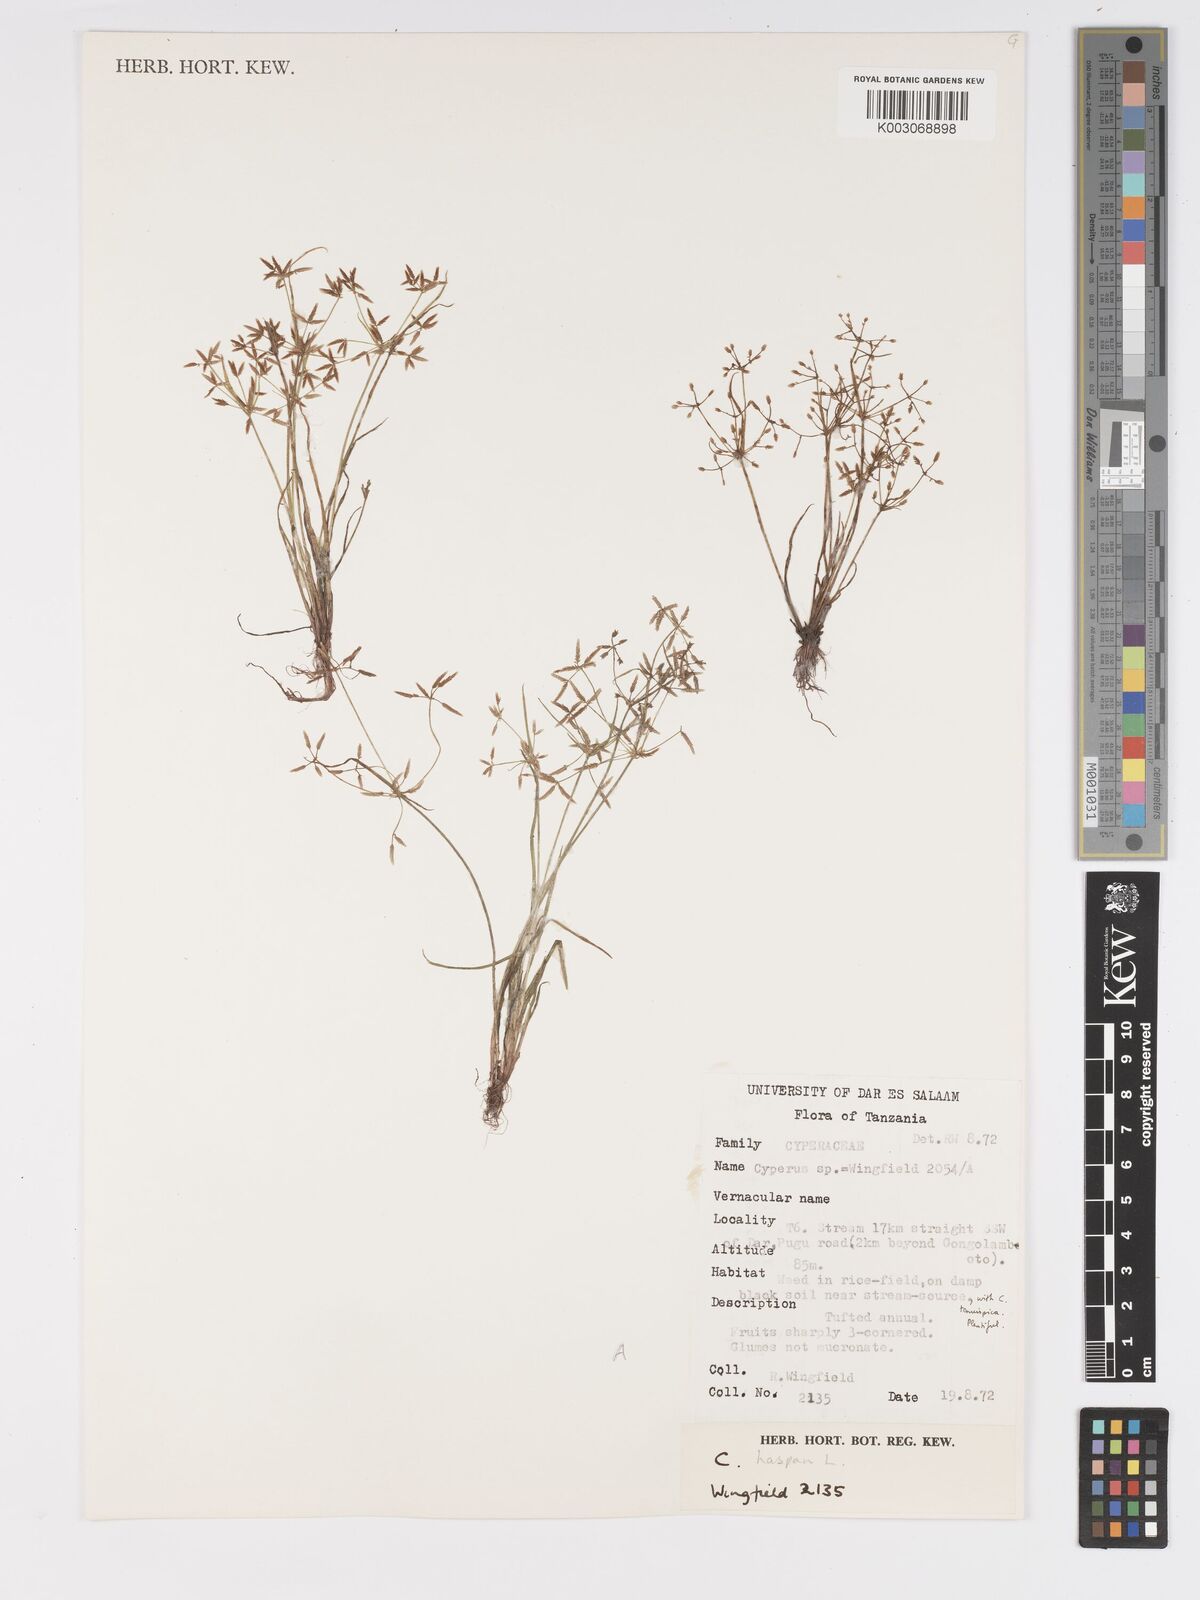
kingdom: Plantae
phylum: Tracheophyta
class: Liliopsida
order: Poales
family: Cyperaceae
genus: Cyperus
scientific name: Cyperus
